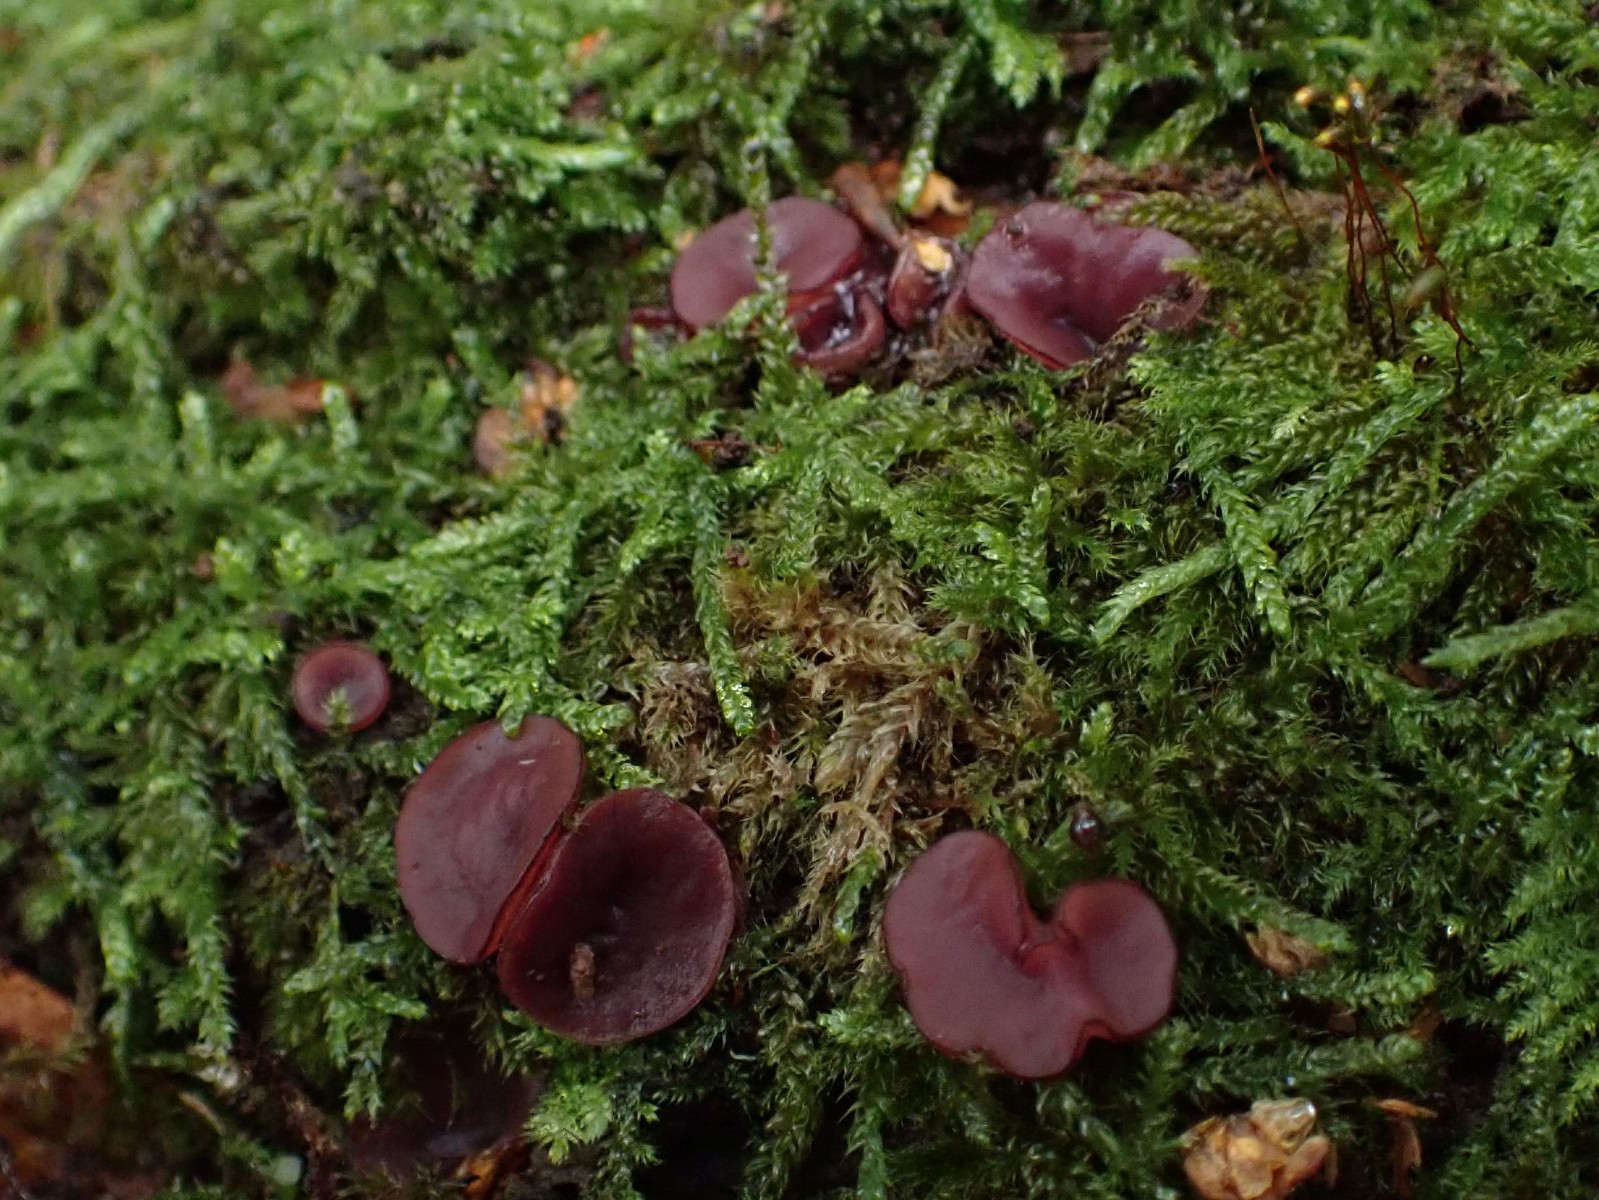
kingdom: Fungi
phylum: Ascomycota
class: Leotiomycetes
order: Helotiales
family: Gelatinodiscaceae
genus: Ascocoryne
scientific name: Ascocoryne cylichnium
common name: stor sejskive
